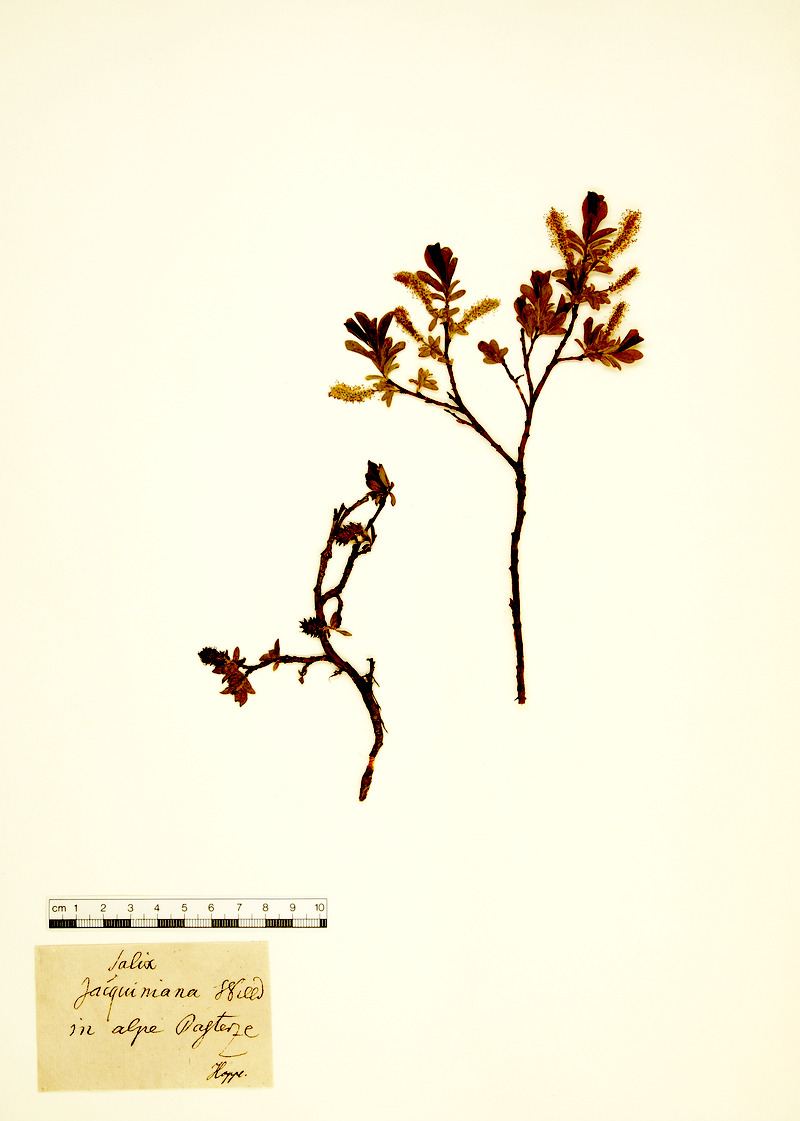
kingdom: Plantae
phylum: Tracheophyta
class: Magnoliopsida
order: Malpighiales
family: Salicaceae
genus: Salix
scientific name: Salix alpina
